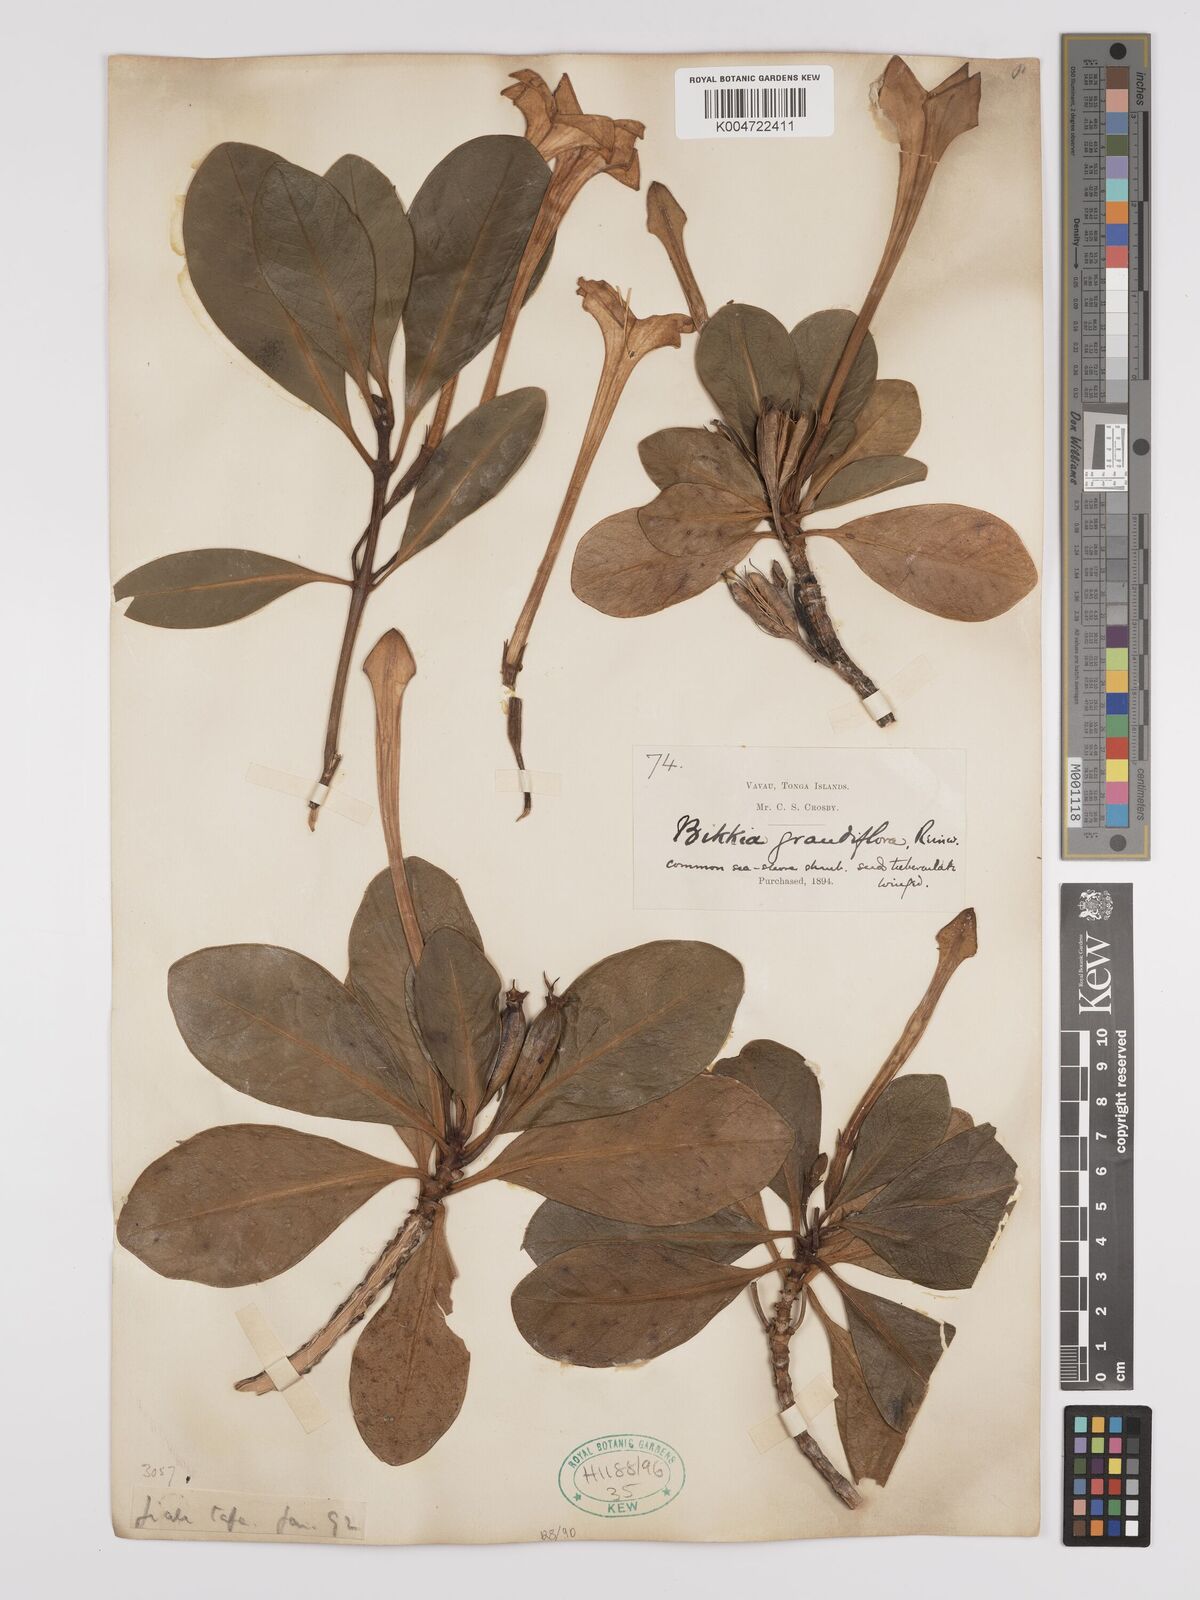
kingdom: Plantae
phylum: Tracheophyta
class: Magnoliopsida
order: Gentianales
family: Rubiaceae
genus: Bikkia
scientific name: Bikkia tetrandra
